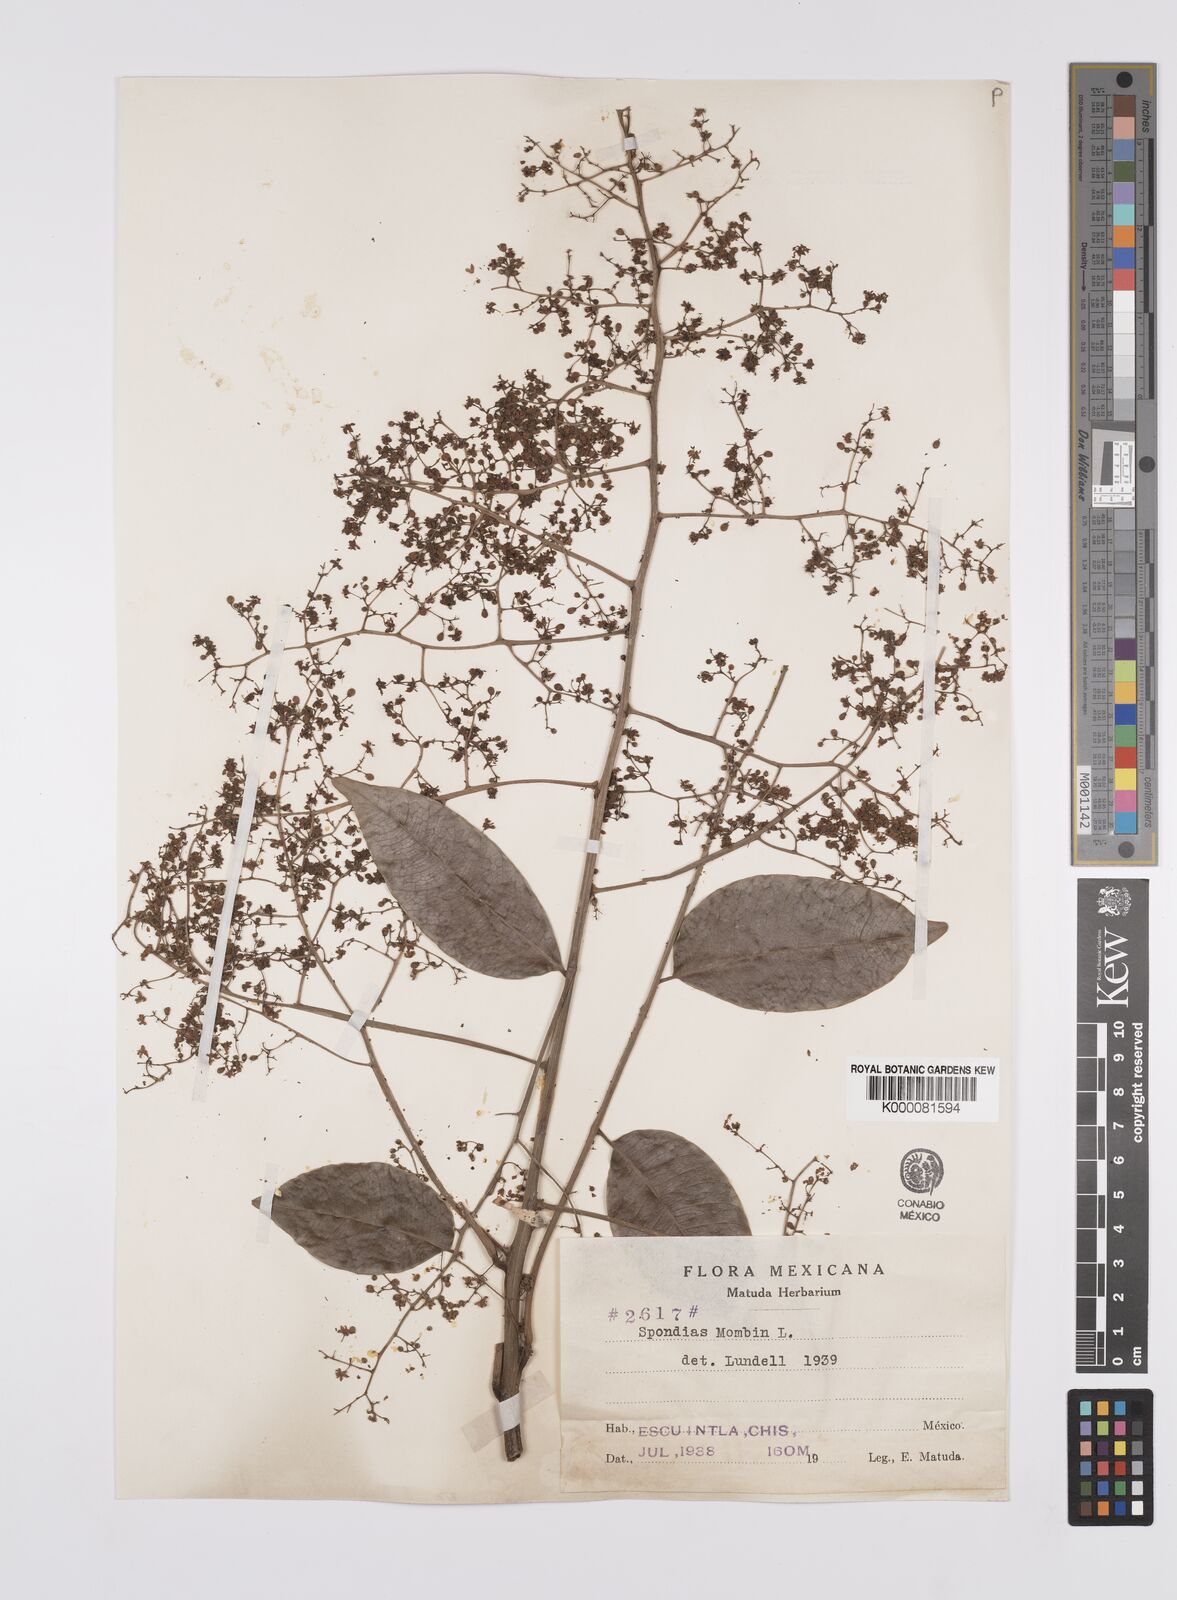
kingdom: Plantae
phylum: Tracheophyta
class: Magnoliopsida
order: Sapindales
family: Anacardiaceae
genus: Spondias
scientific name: Spondias mombin
